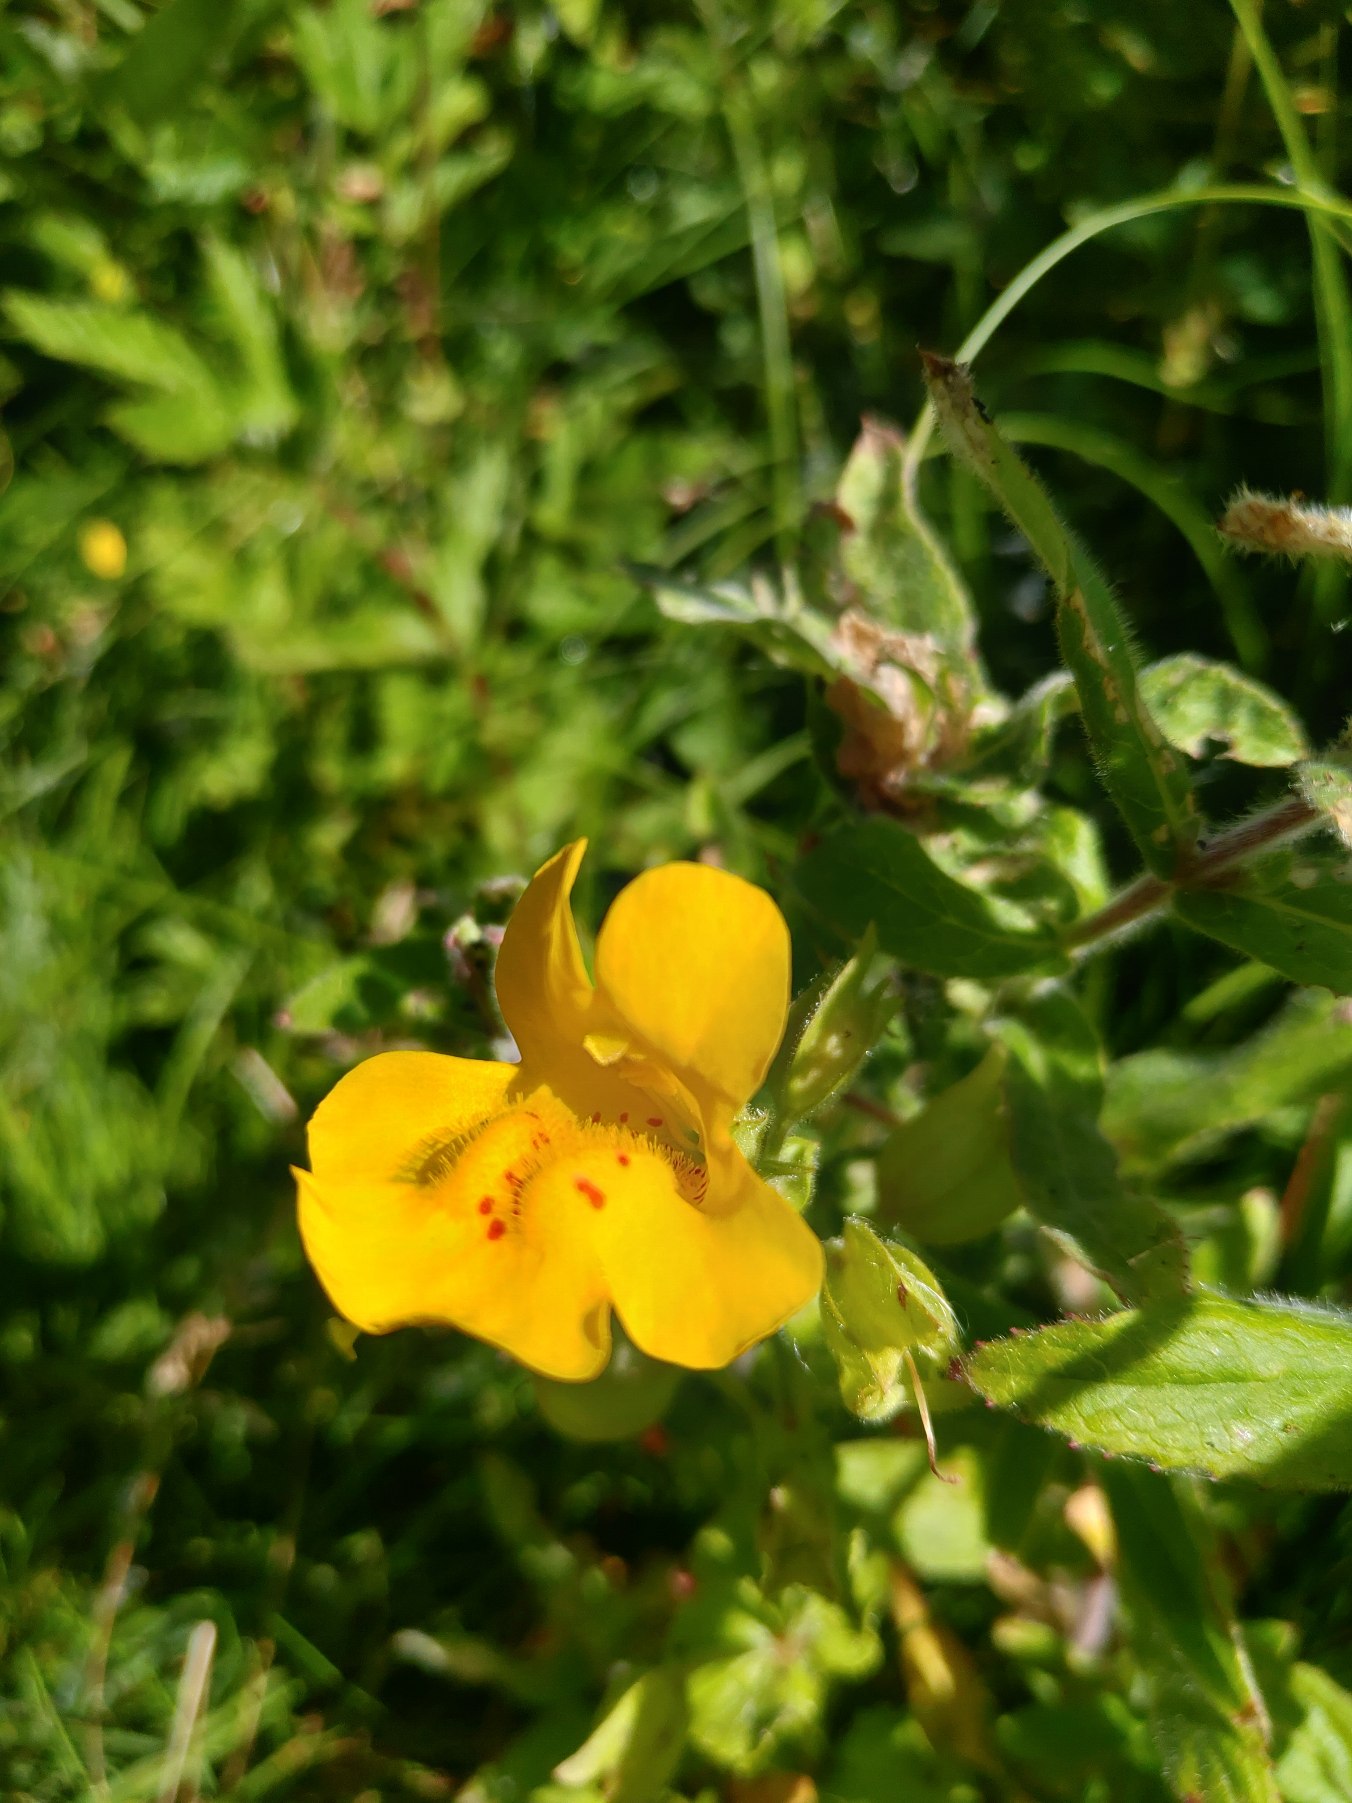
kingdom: Plantae
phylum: Tracheophyta
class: Magnoliopsida
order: Lamiales
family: Phrymaceae
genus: Erythranthe
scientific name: Erythranthe guttata
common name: Abeblomst
